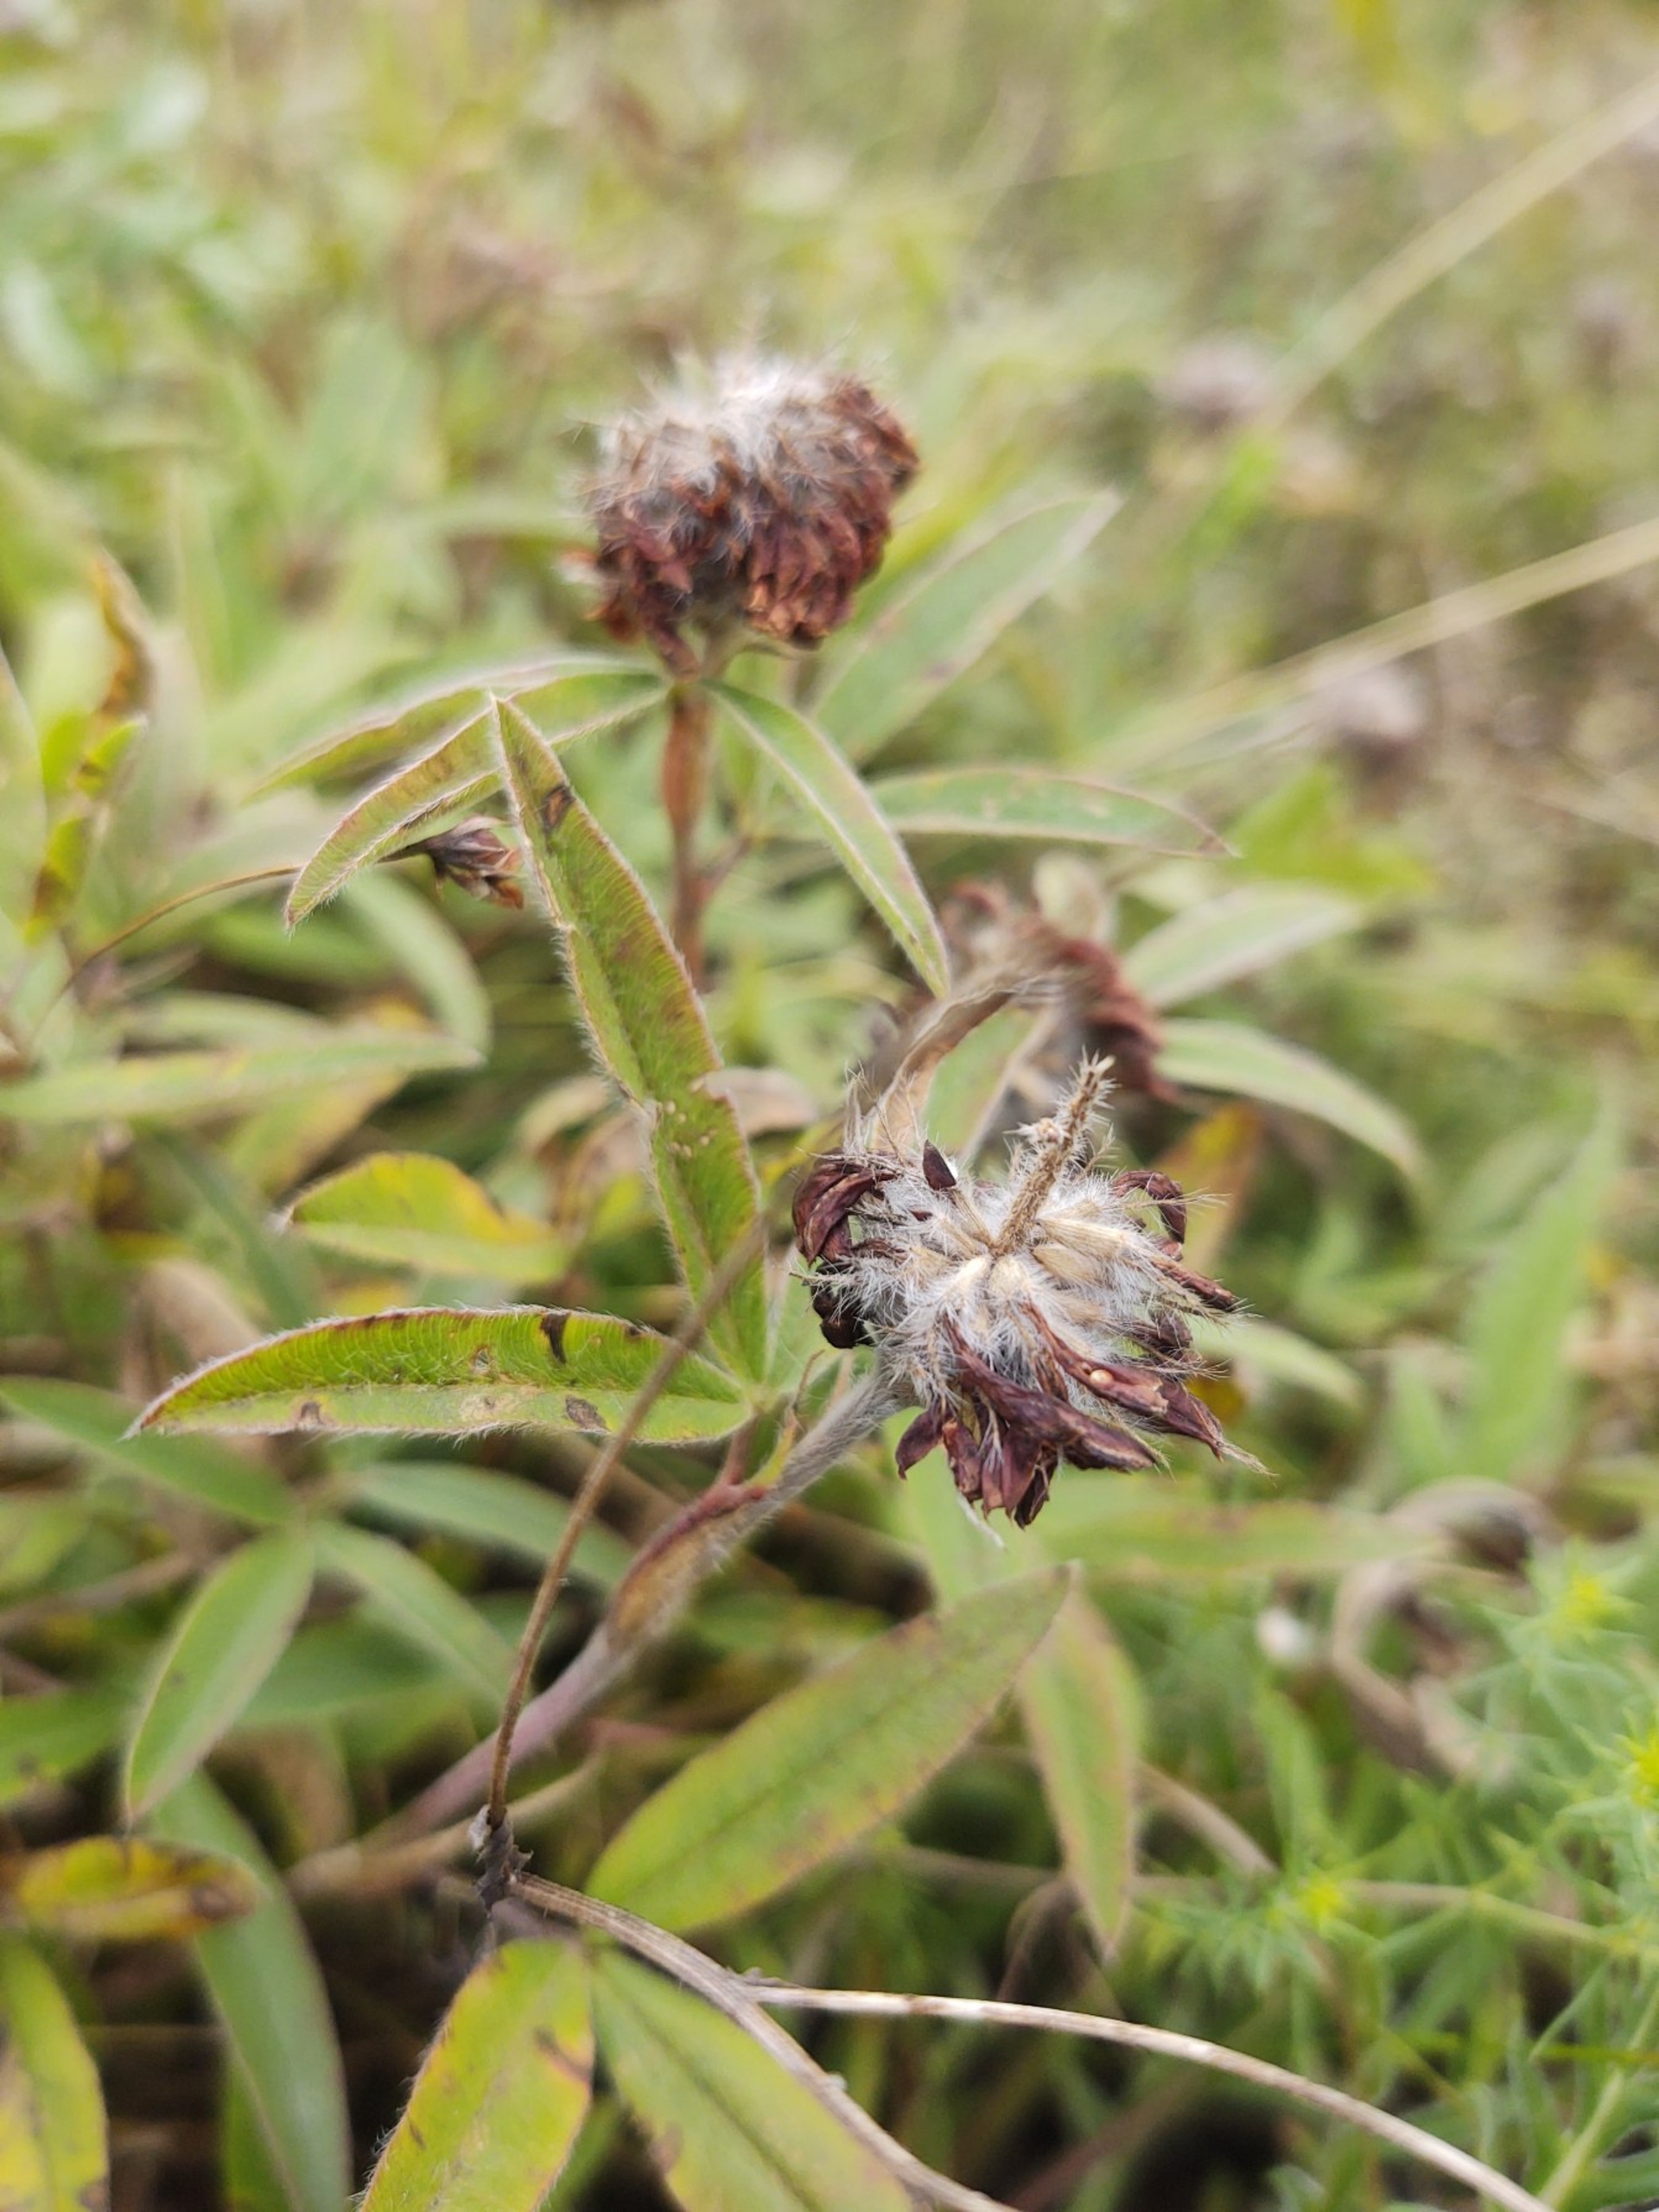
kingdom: Plantae
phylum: Tracheophyta
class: Magnoliopsida
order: Fabales
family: Fabaceae
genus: Trifolium
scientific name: Trifolium alpestre
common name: Skov-kløver
